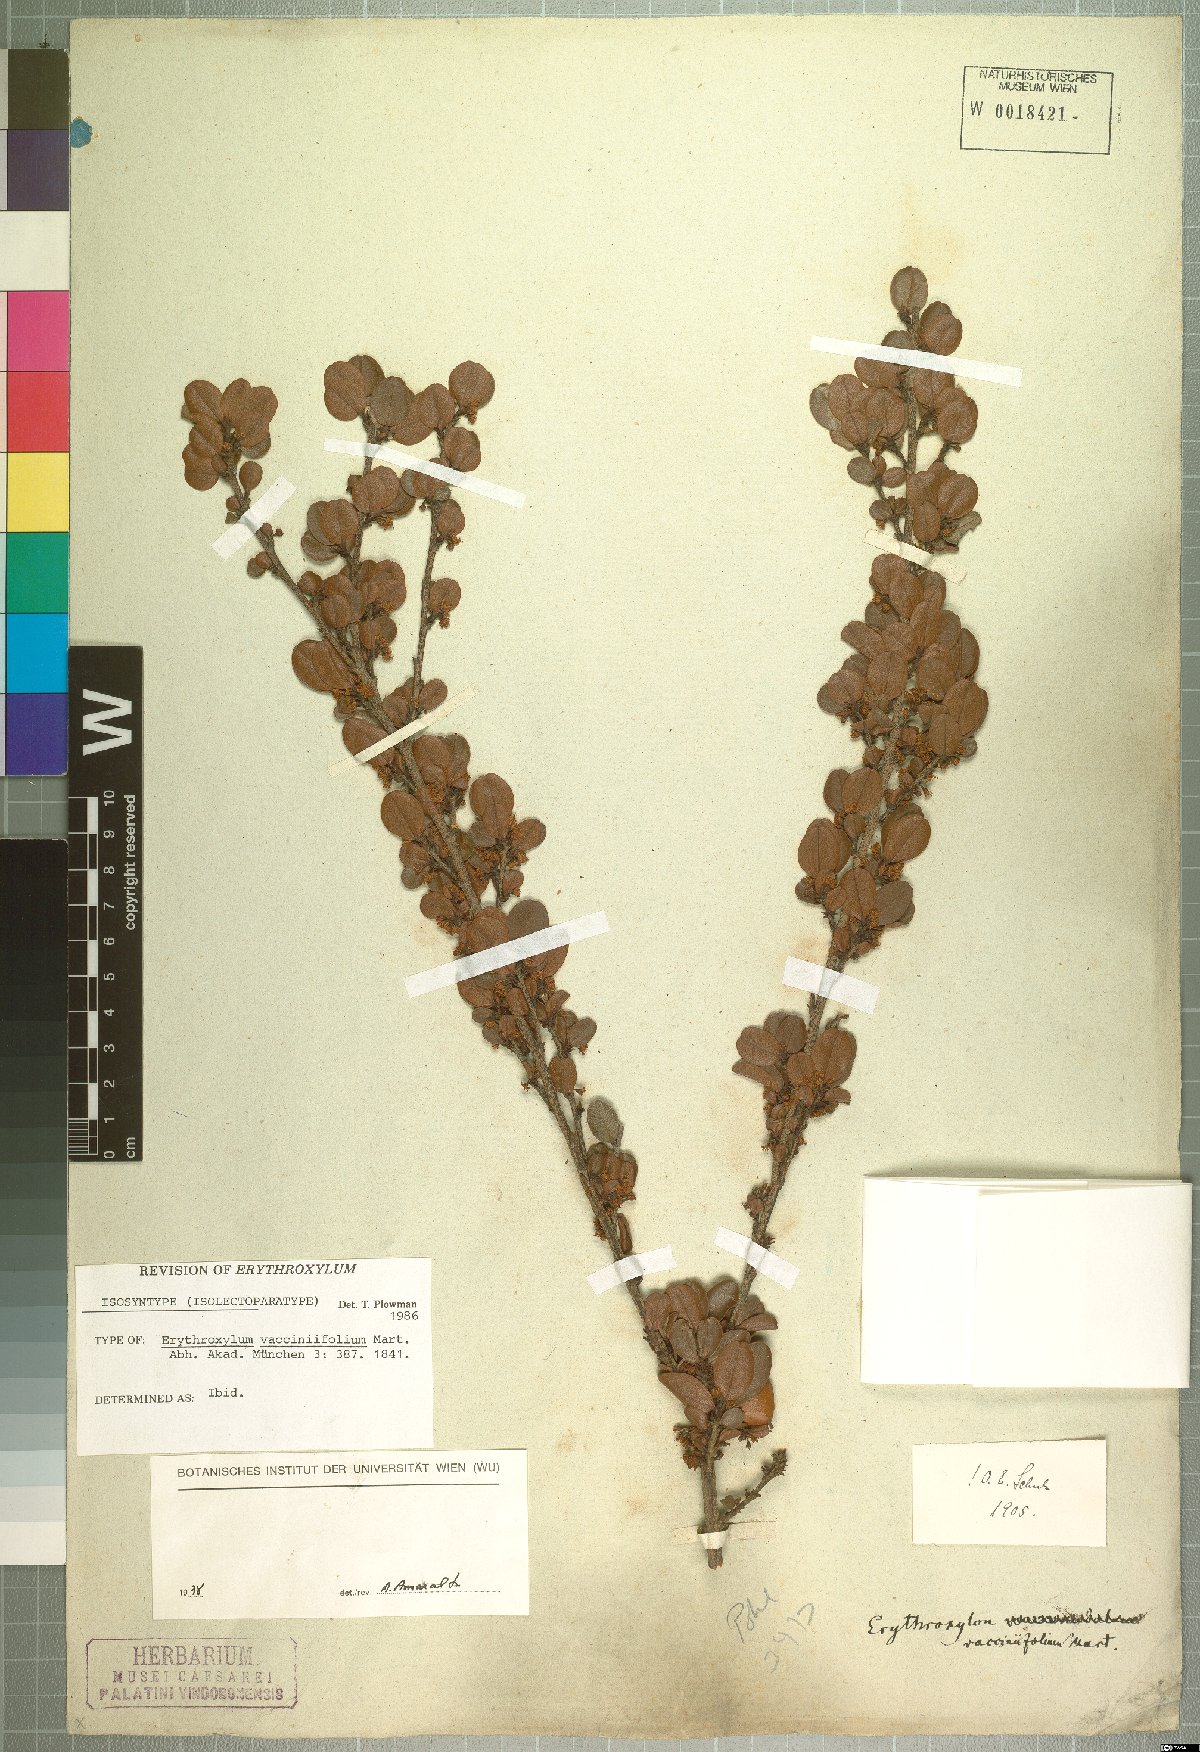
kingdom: Plantae
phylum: Tracheophyta
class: Magnoliopsida
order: Malpighiales
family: Erythroxylaceae
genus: Erythroxylum
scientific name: Erythroxylum vaccinifolium
